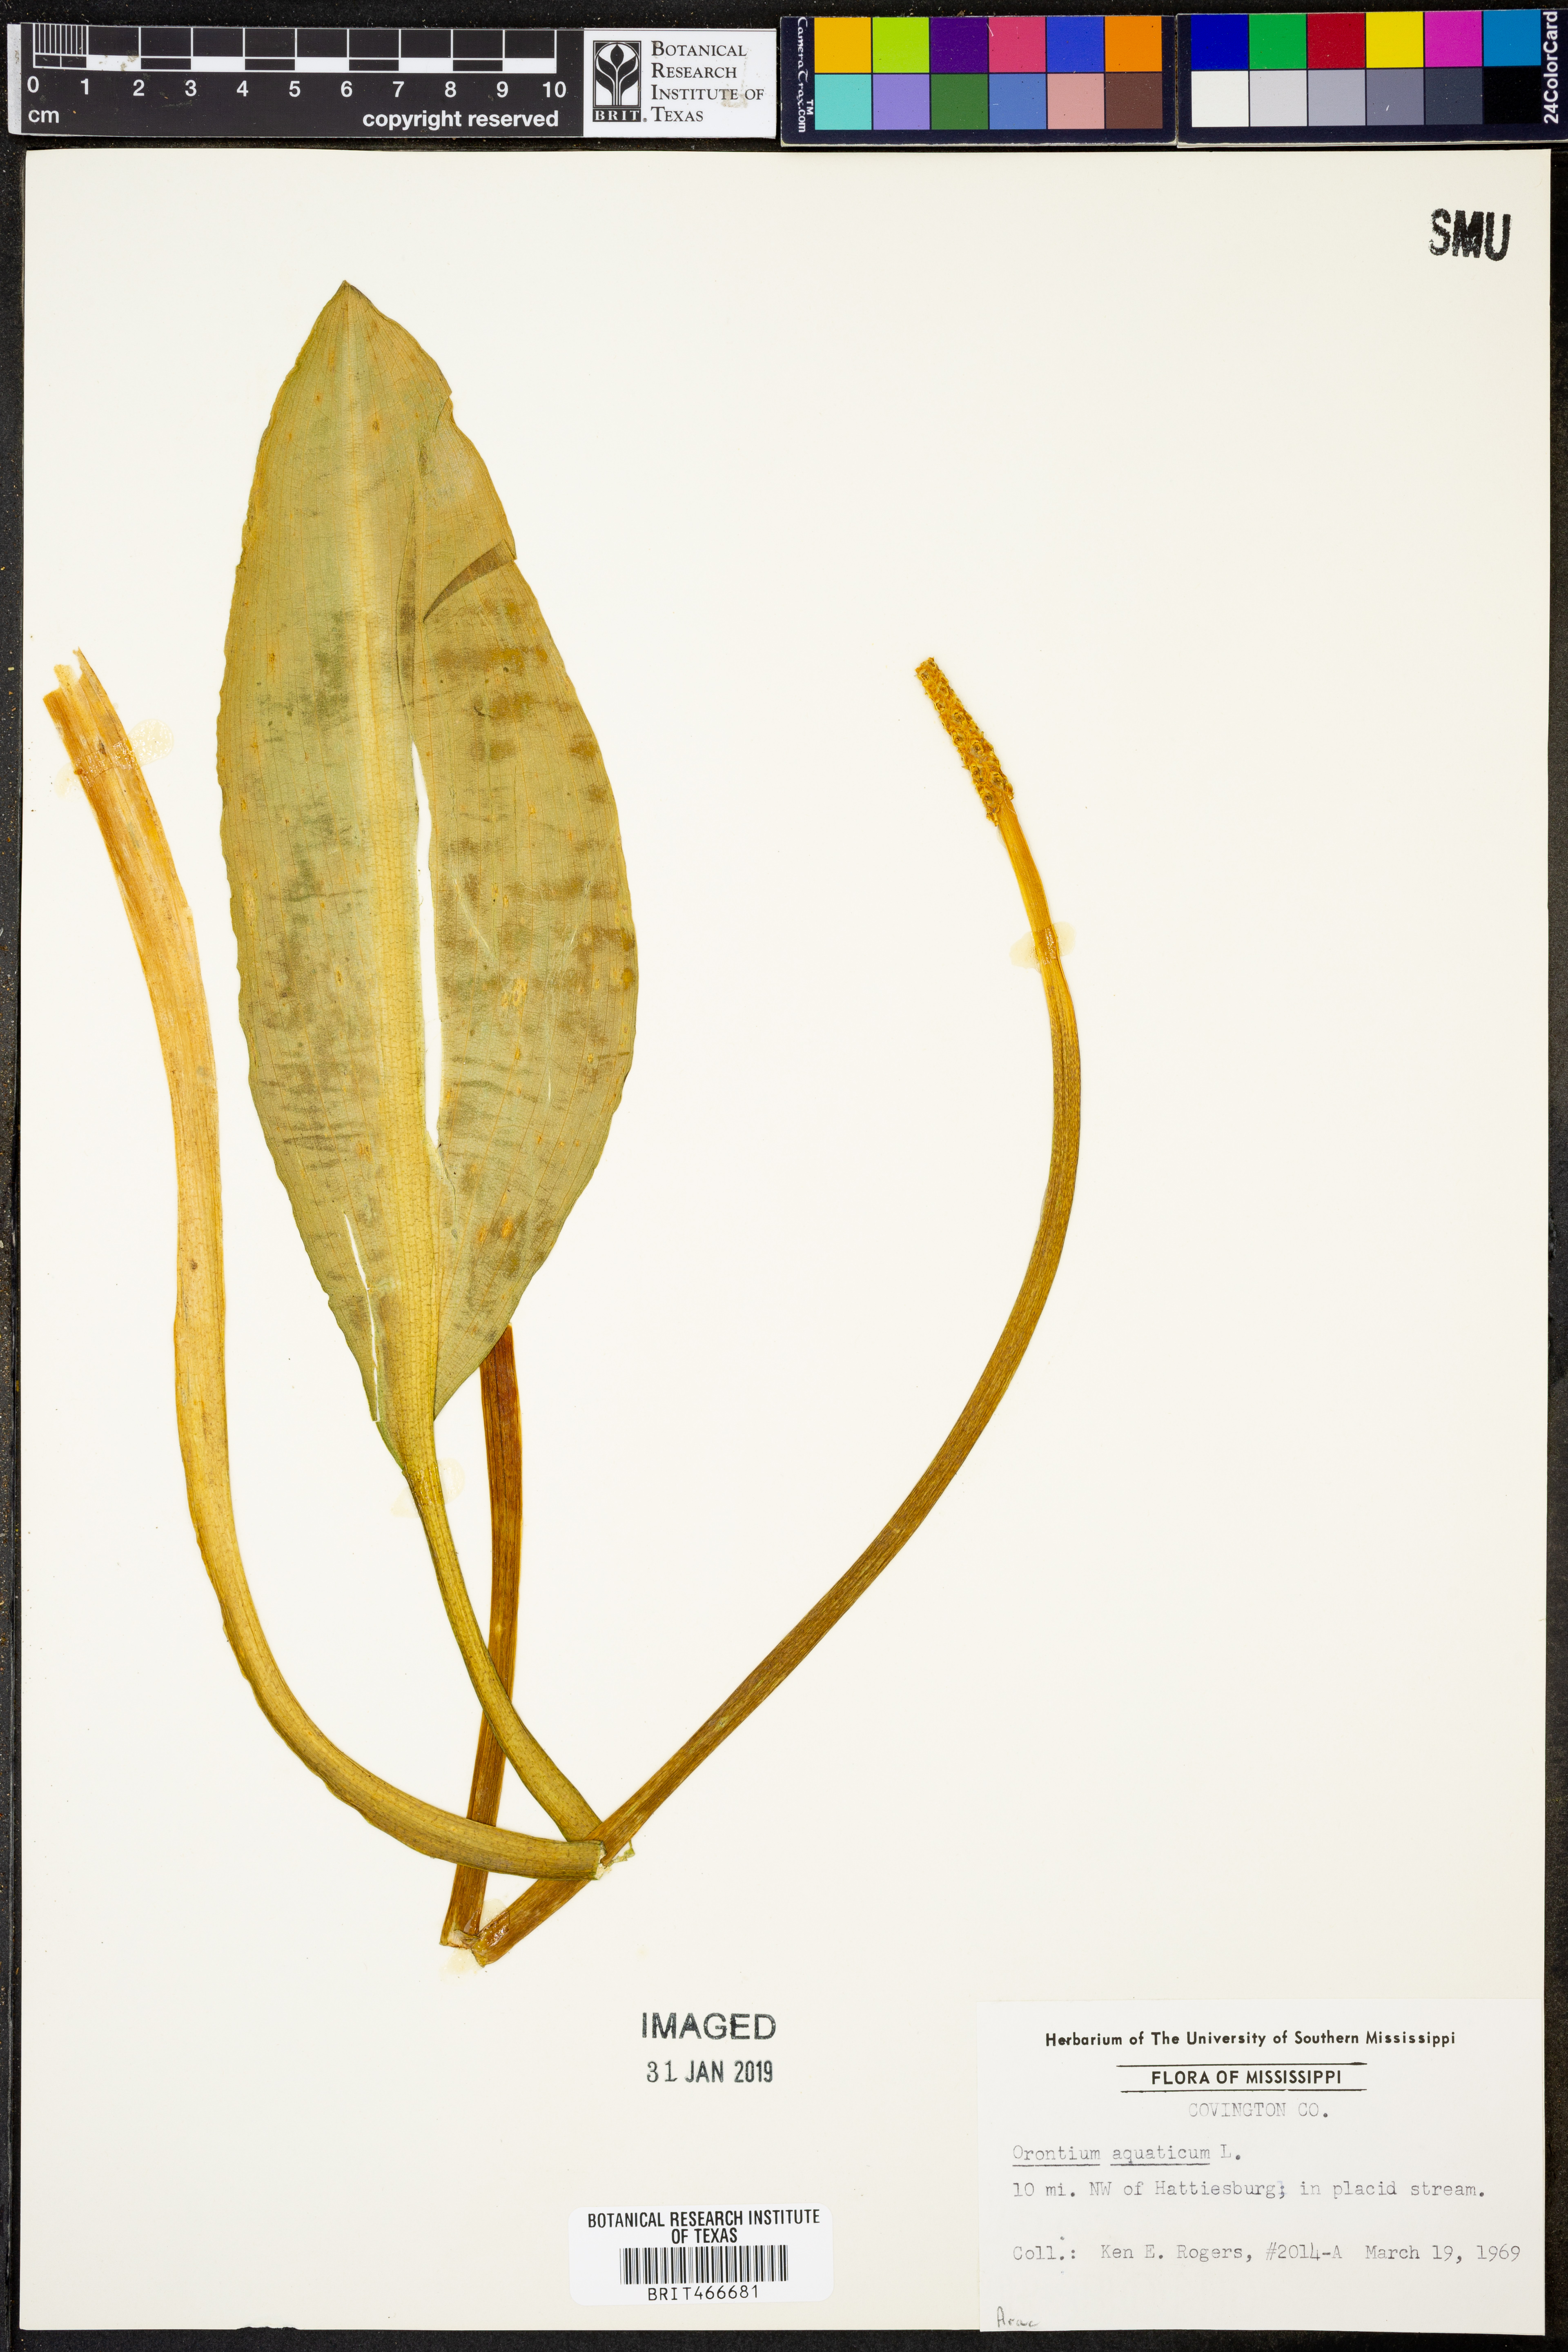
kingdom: Plantae
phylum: Tracheophyta
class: Liliopsida
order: Alismatales
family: Araceae
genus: Orontium
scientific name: Orontium aquaticum
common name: Golden-club
